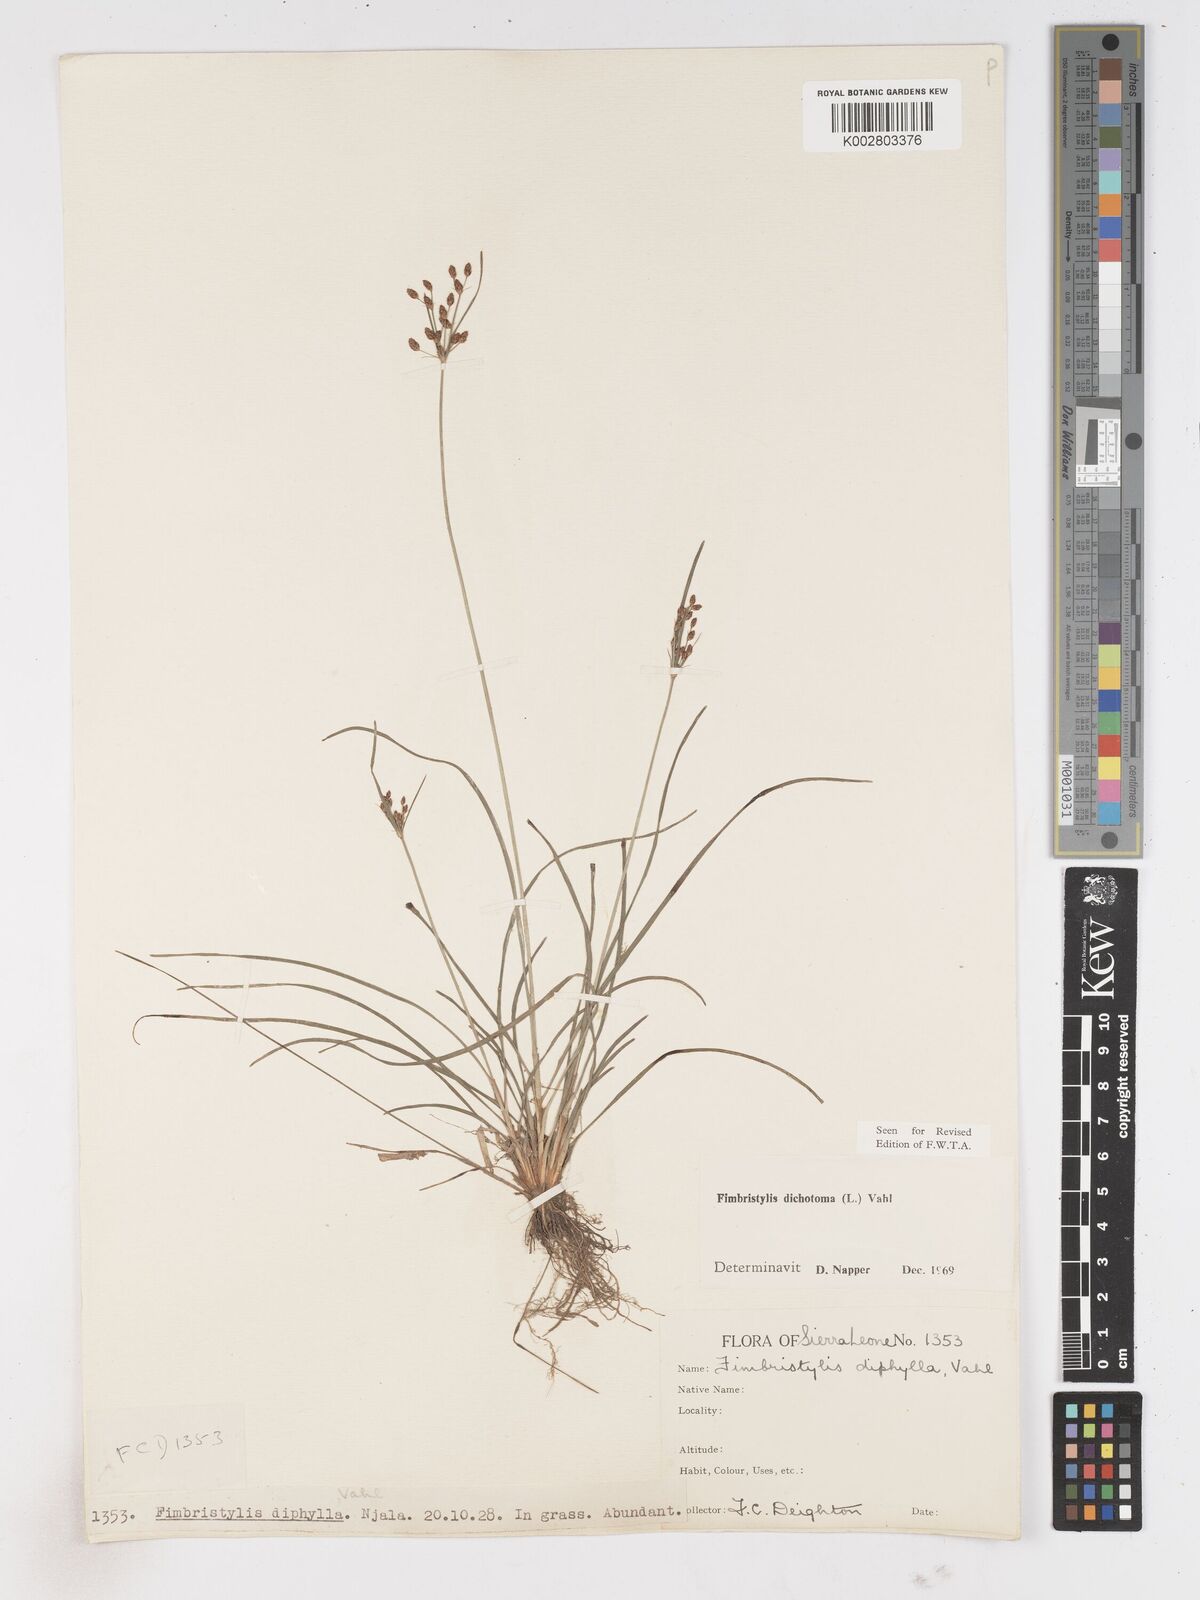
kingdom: Plantae
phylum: Tracheophyta
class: Liliopsida
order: Poales
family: Cyperaceae
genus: Fimbristylis
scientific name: Fimbristylis dichotoma
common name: Forked fimbry
